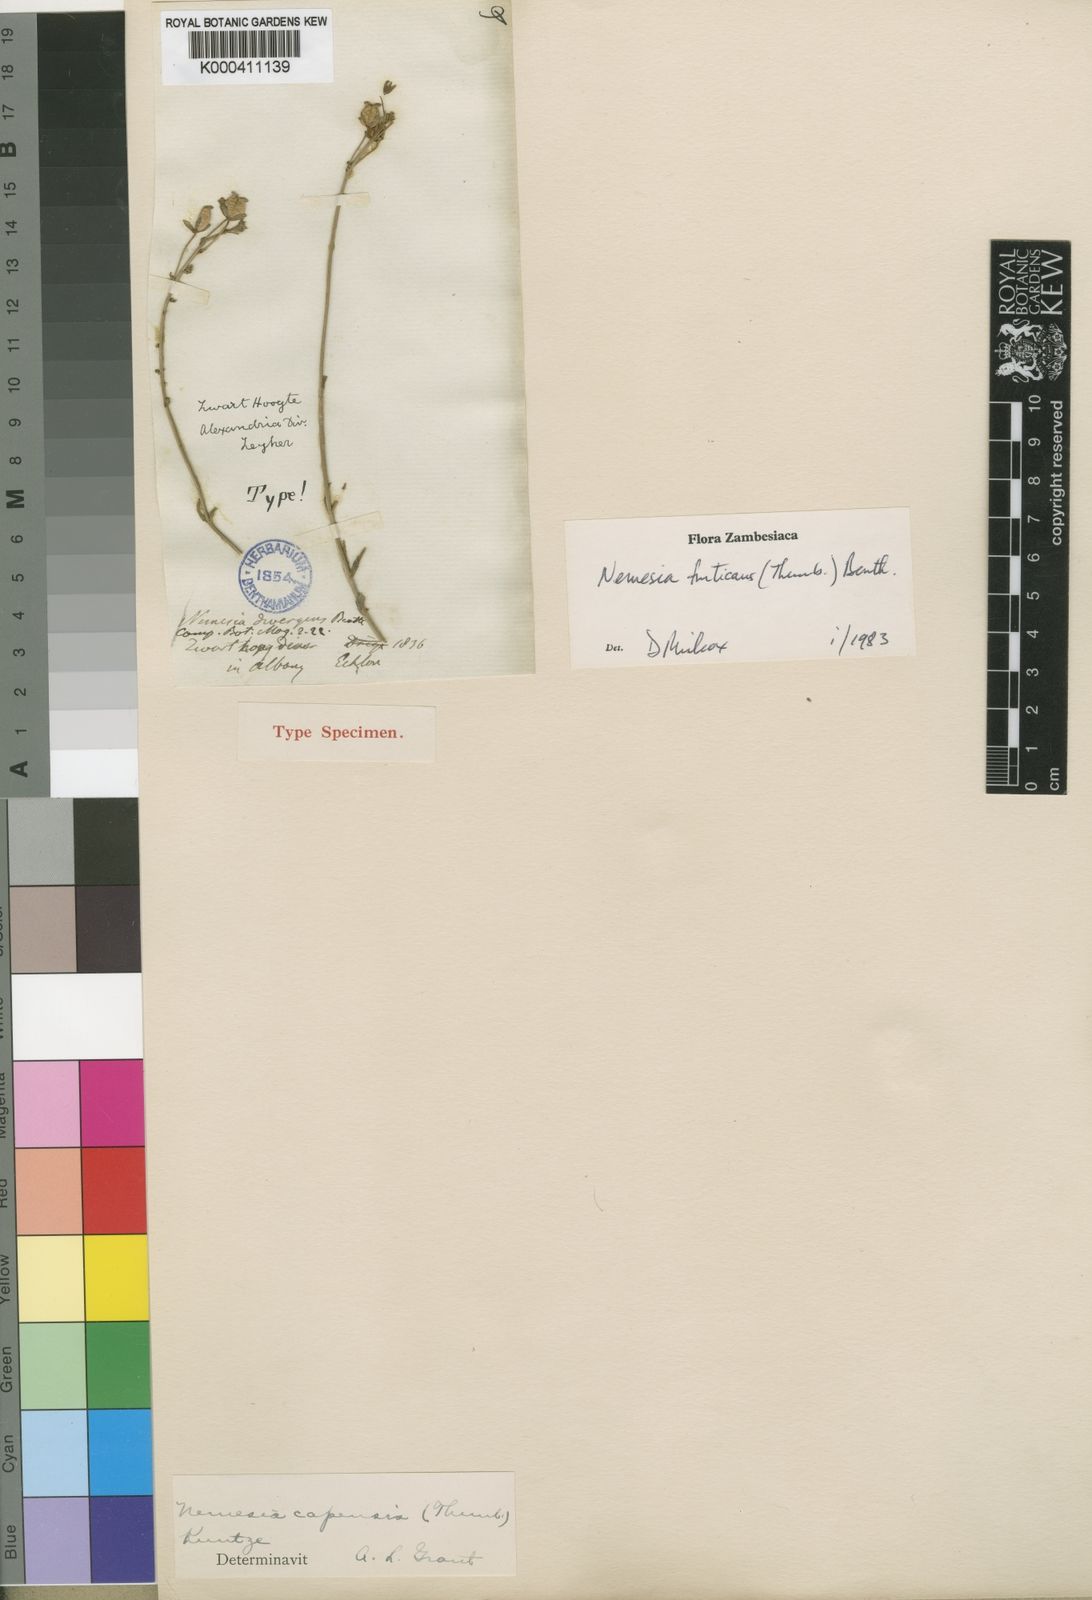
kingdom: Plantae
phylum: Tracheophyta
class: Magnoliopsida
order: Lamiales
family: Scrophulariaceae
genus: Nemesia
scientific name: Nemesia fruticans
